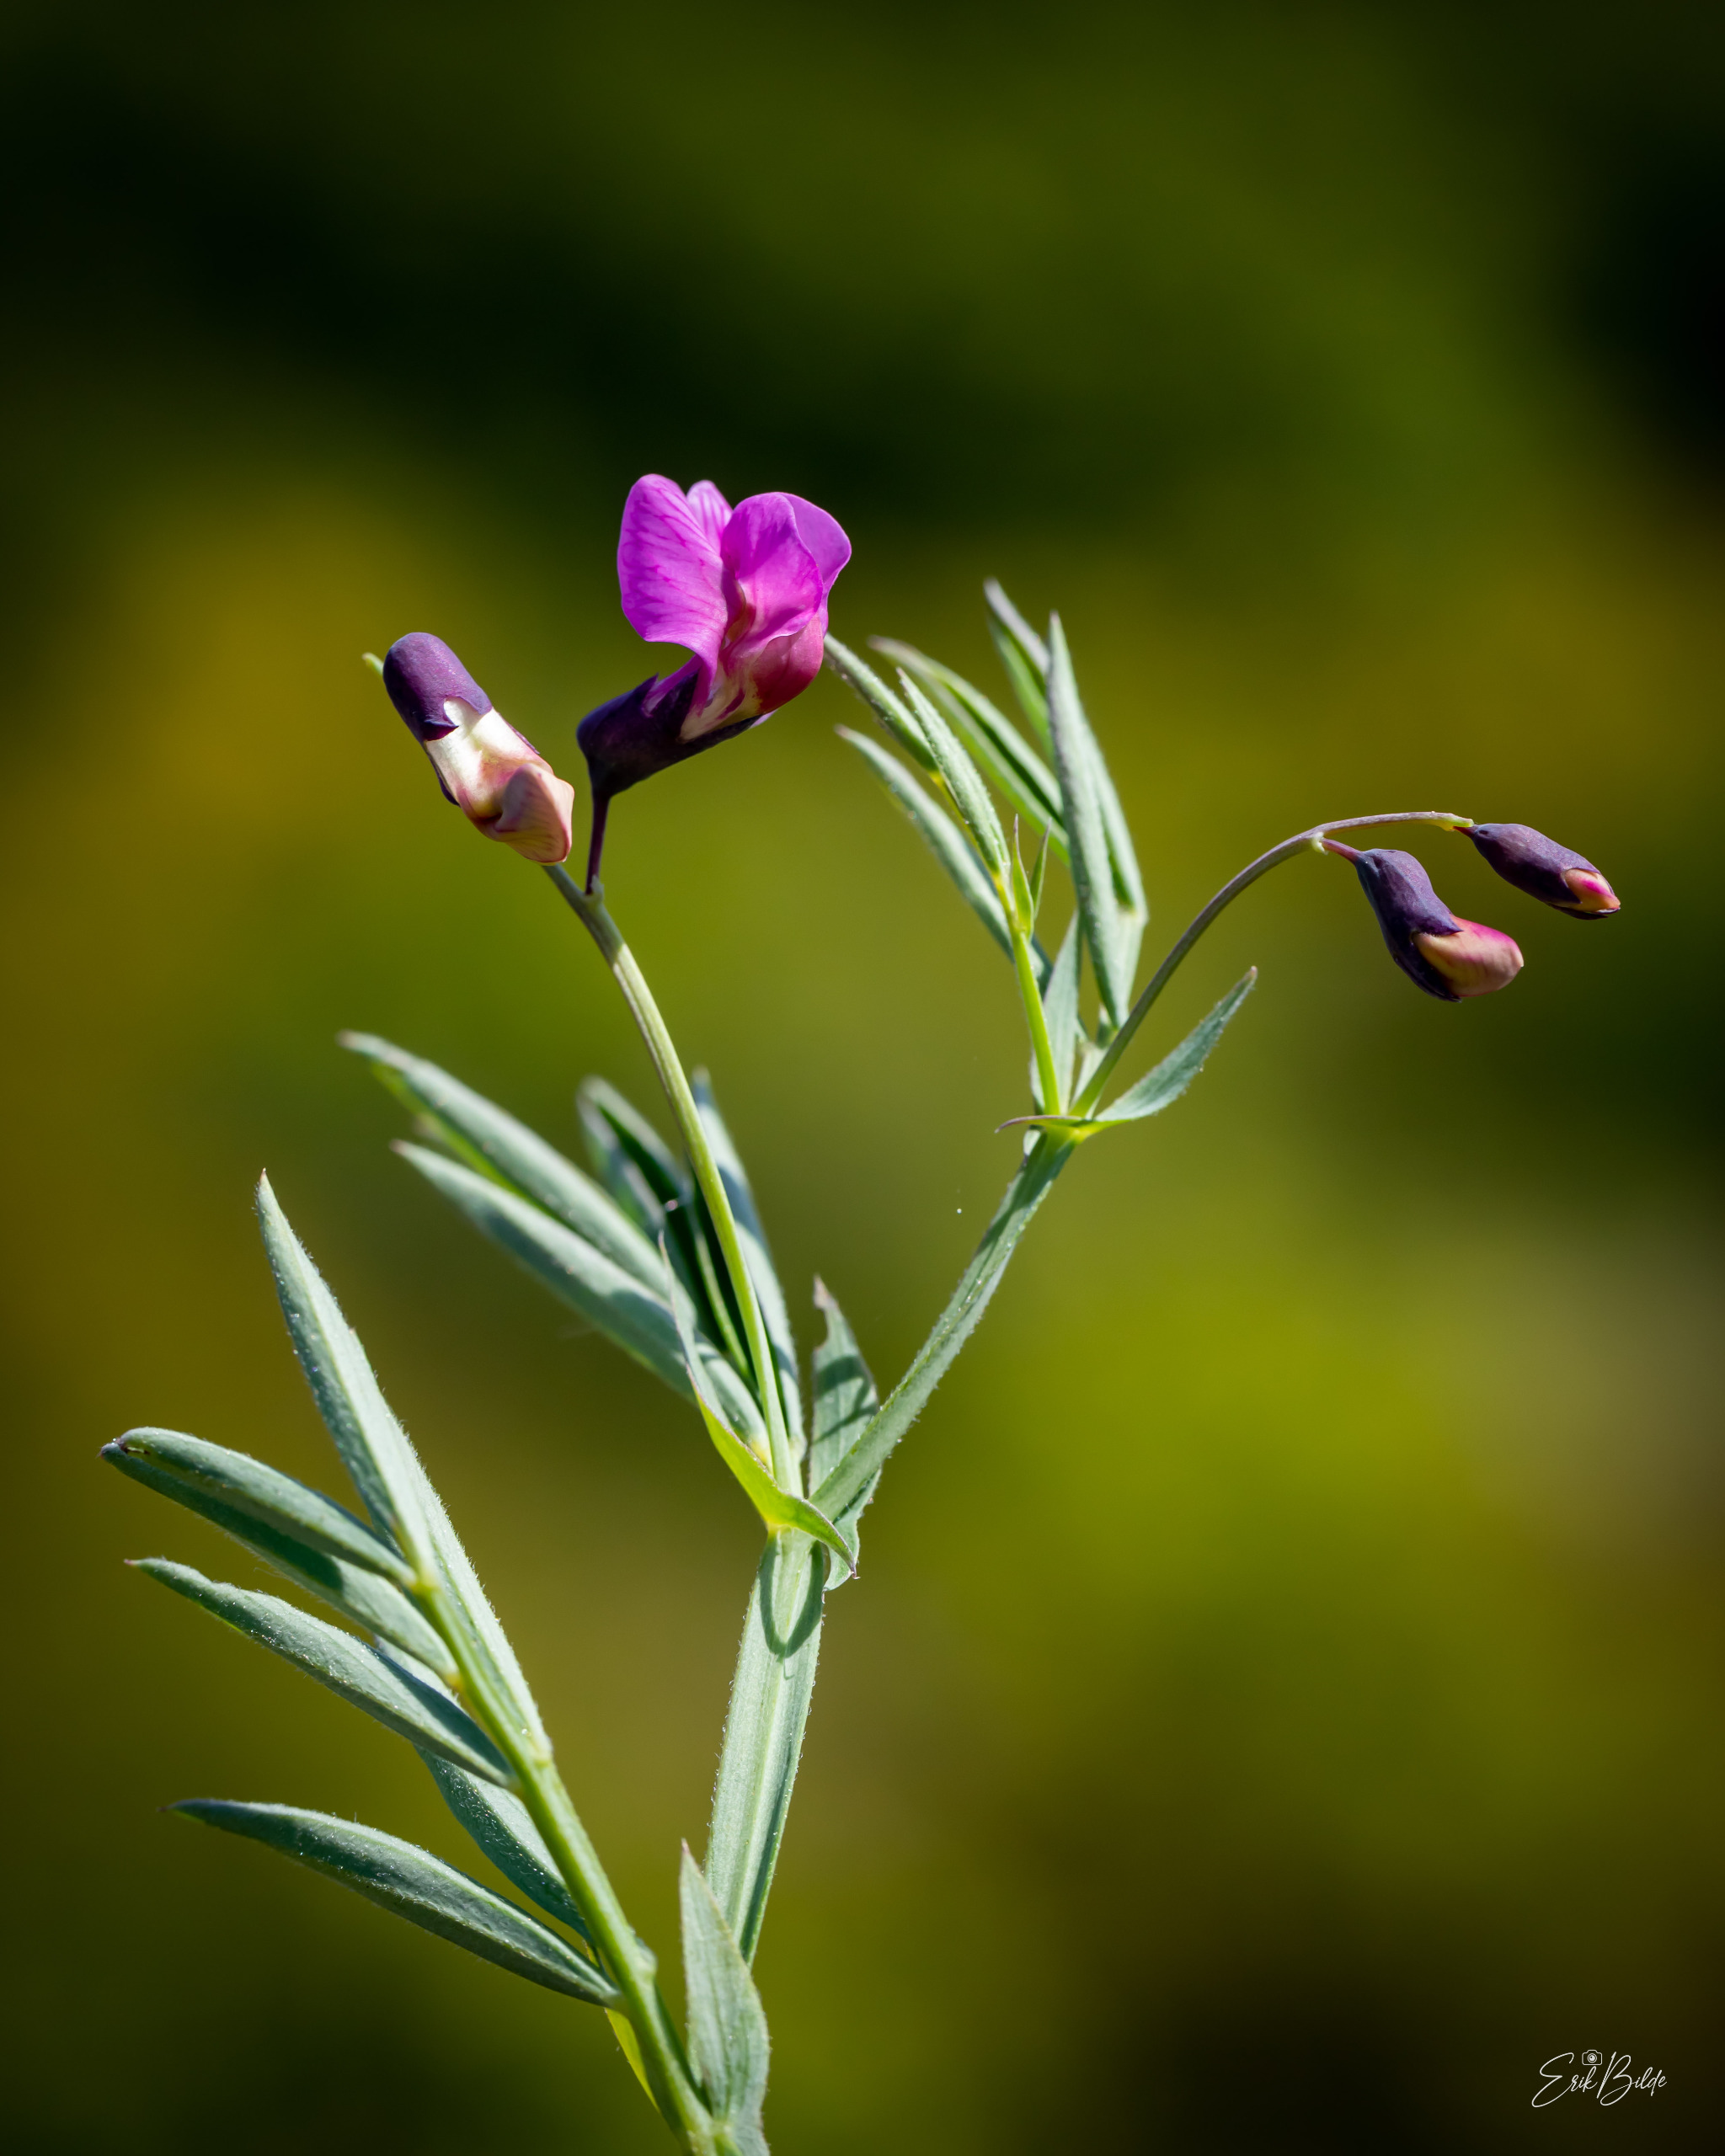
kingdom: Plantae
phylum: Tracheophyta
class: Magnoliopsida
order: Fabales
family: Fabaceae
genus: Lathyrus
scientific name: Lathyrus linifolius
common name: Krat-fladbælg
